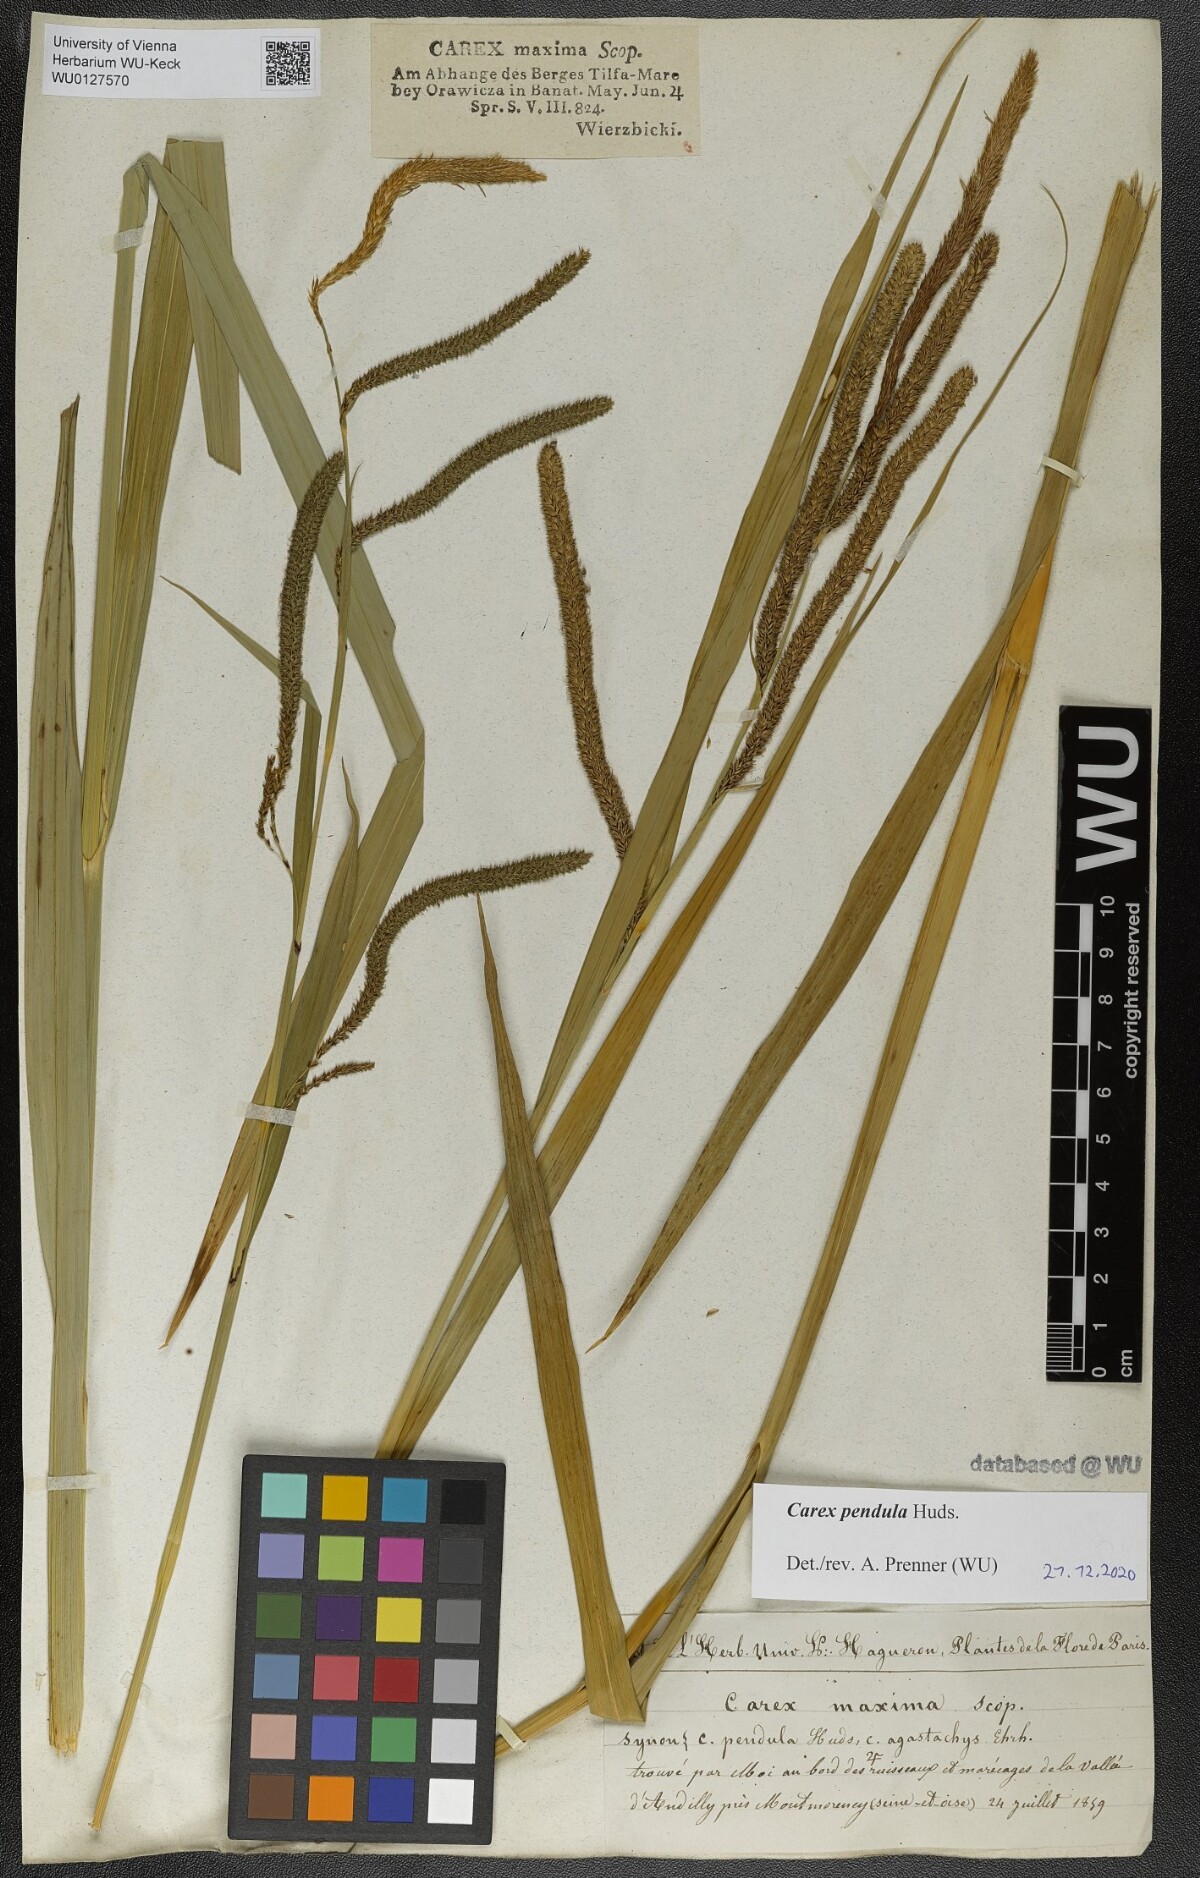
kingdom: Plantae
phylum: Tracheophyta
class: Liliopsida
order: Poales
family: Cyperaceae
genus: Carex
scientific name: Carex pendula
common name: Pendulous sedge
